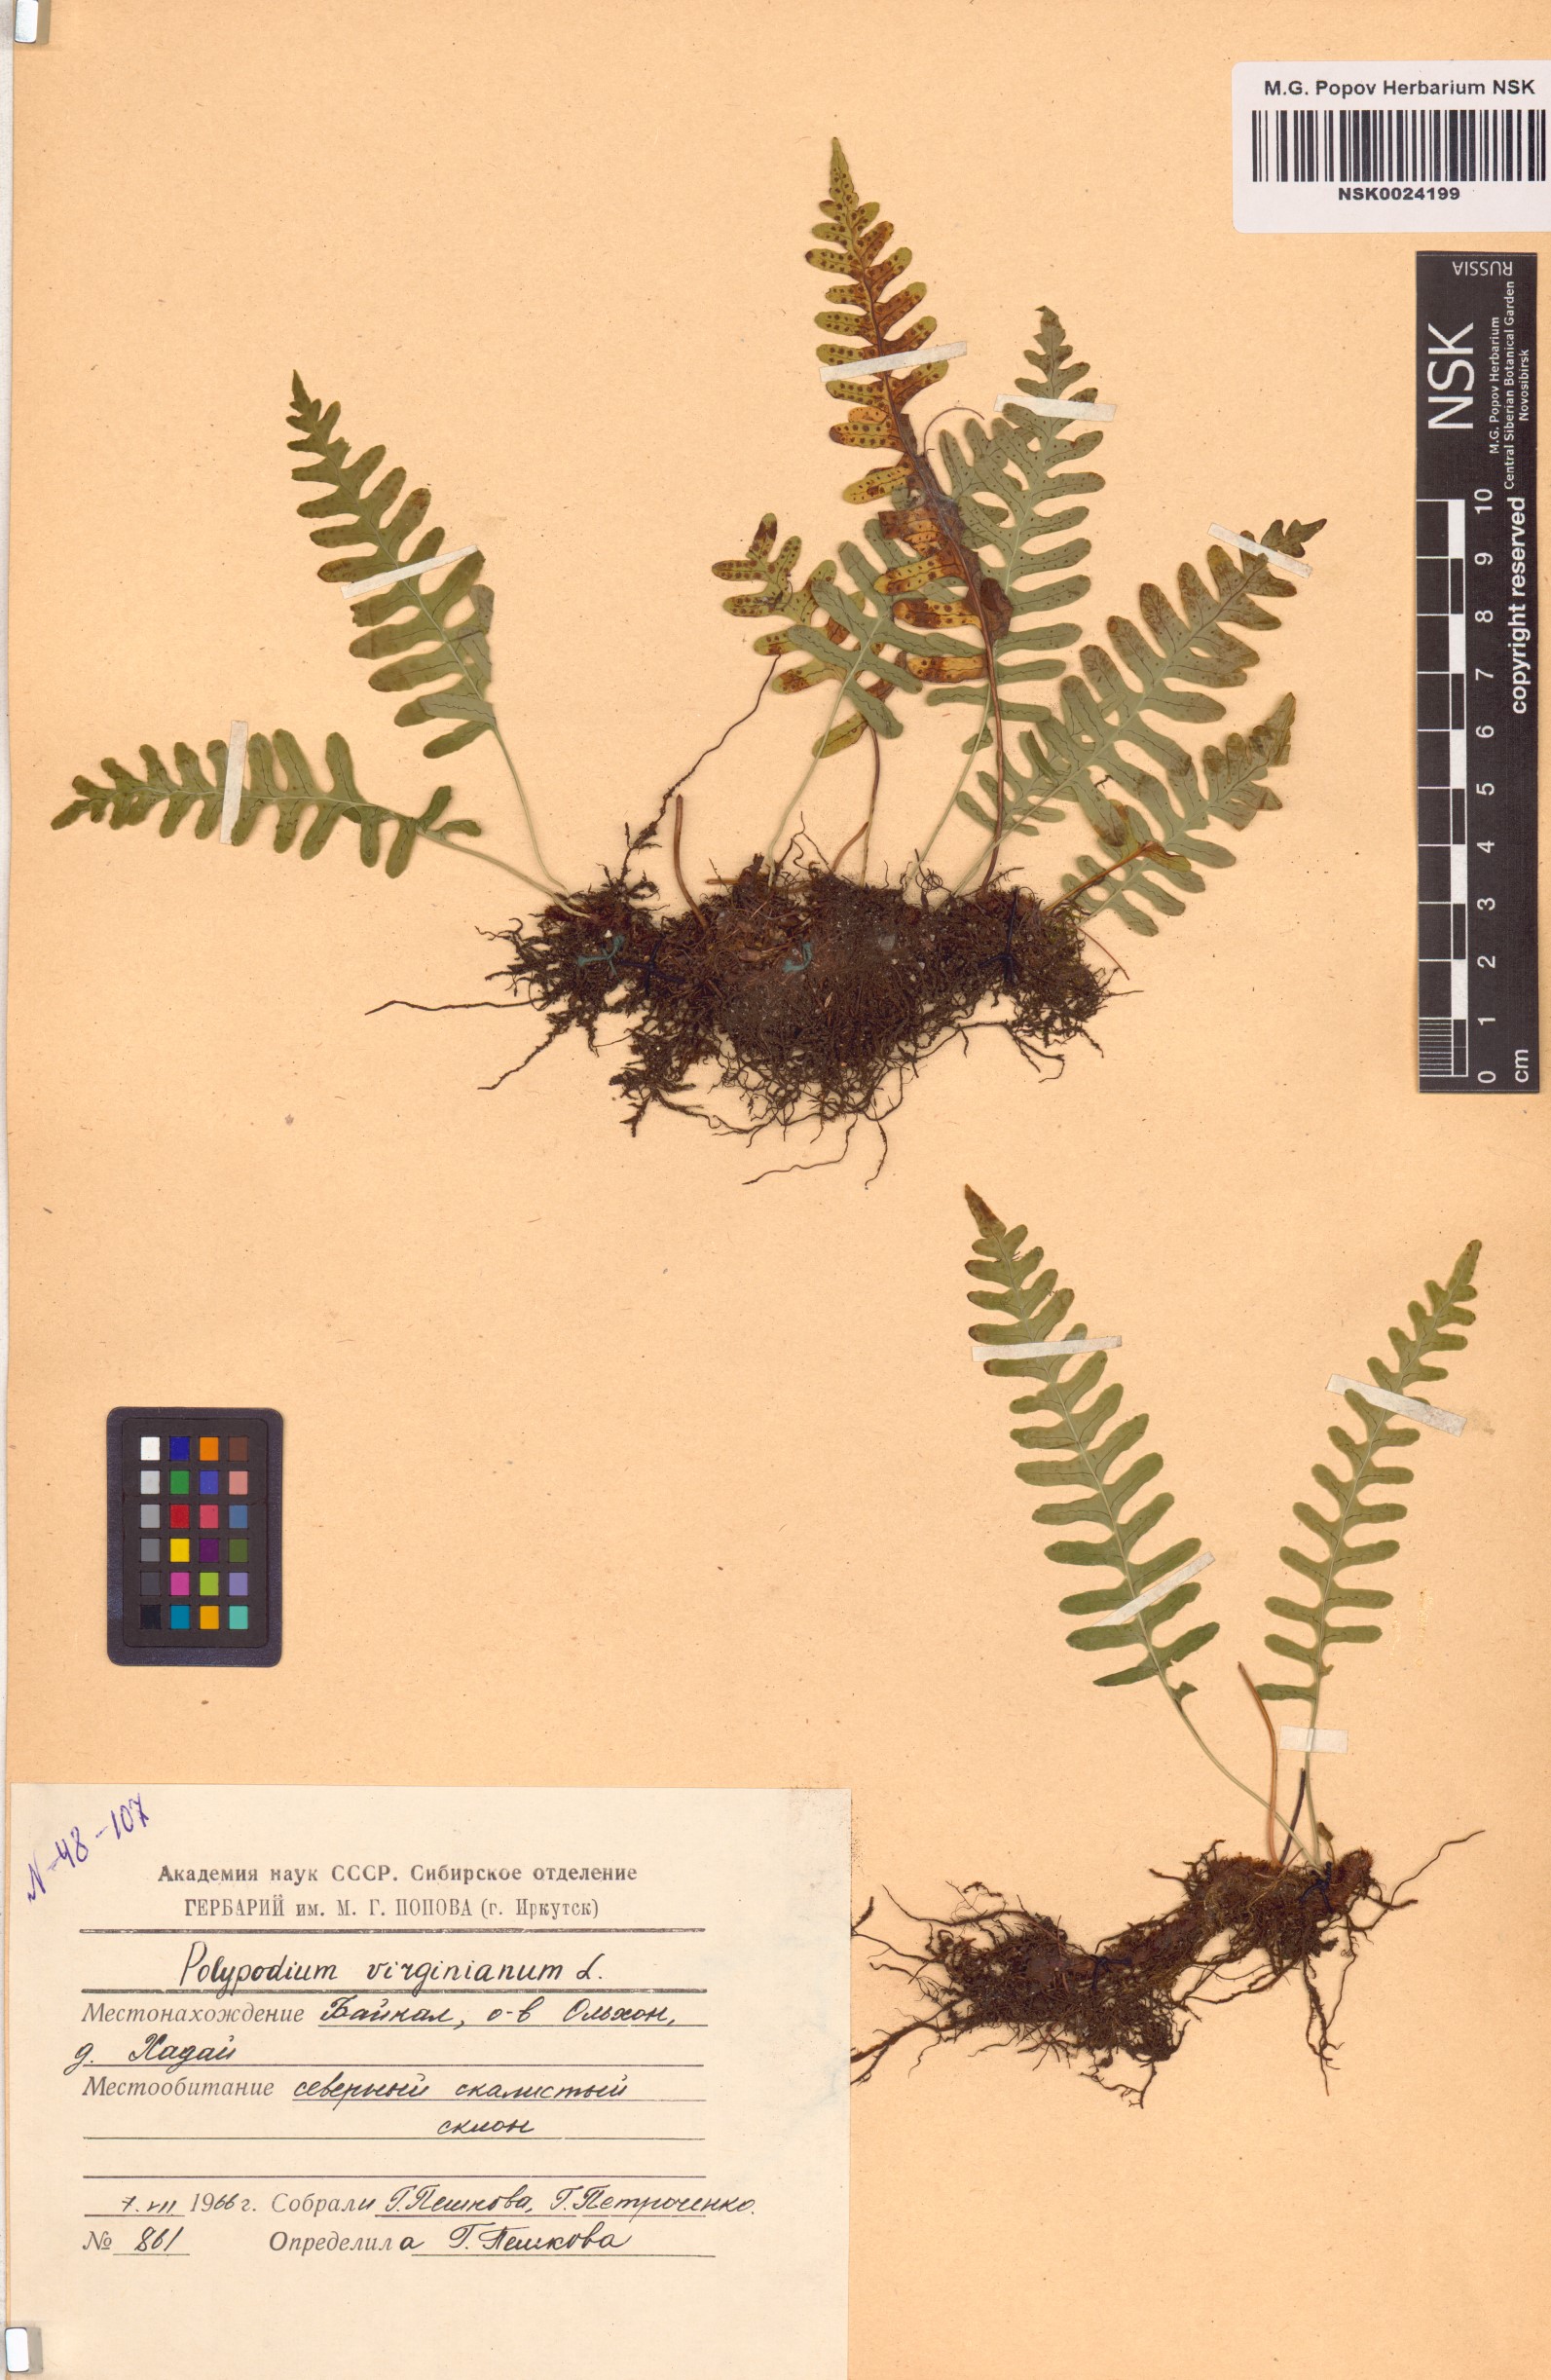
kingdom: Plantae
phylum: Tracheophyta
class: Polypodiopsida
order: Polypodiales
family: Polypodiaceae
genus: Polypodium
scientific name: Polypodium virginianum
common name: American wall fern
